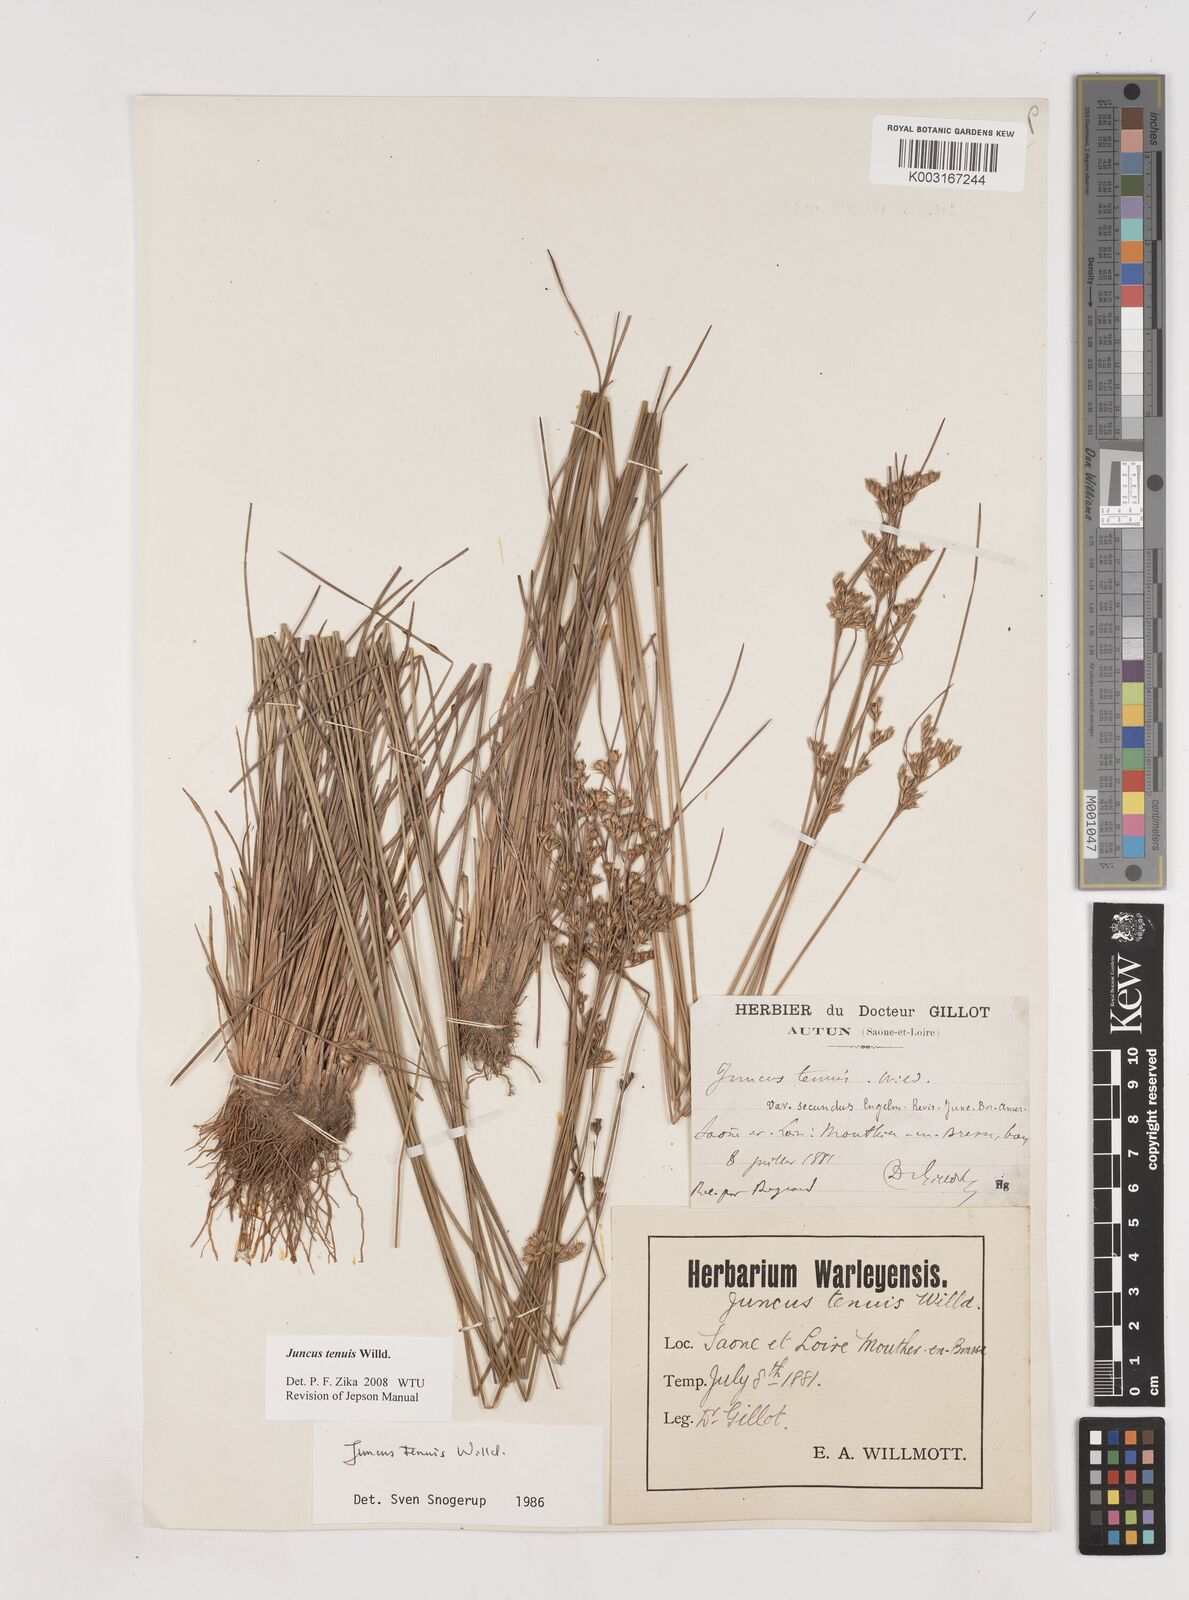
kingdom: Plantae
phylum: Tracheophyta
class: Liliopsida
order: Poales
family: Juncaceae
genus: Juncus
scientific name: Juncus tenuis
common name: Slender rush
